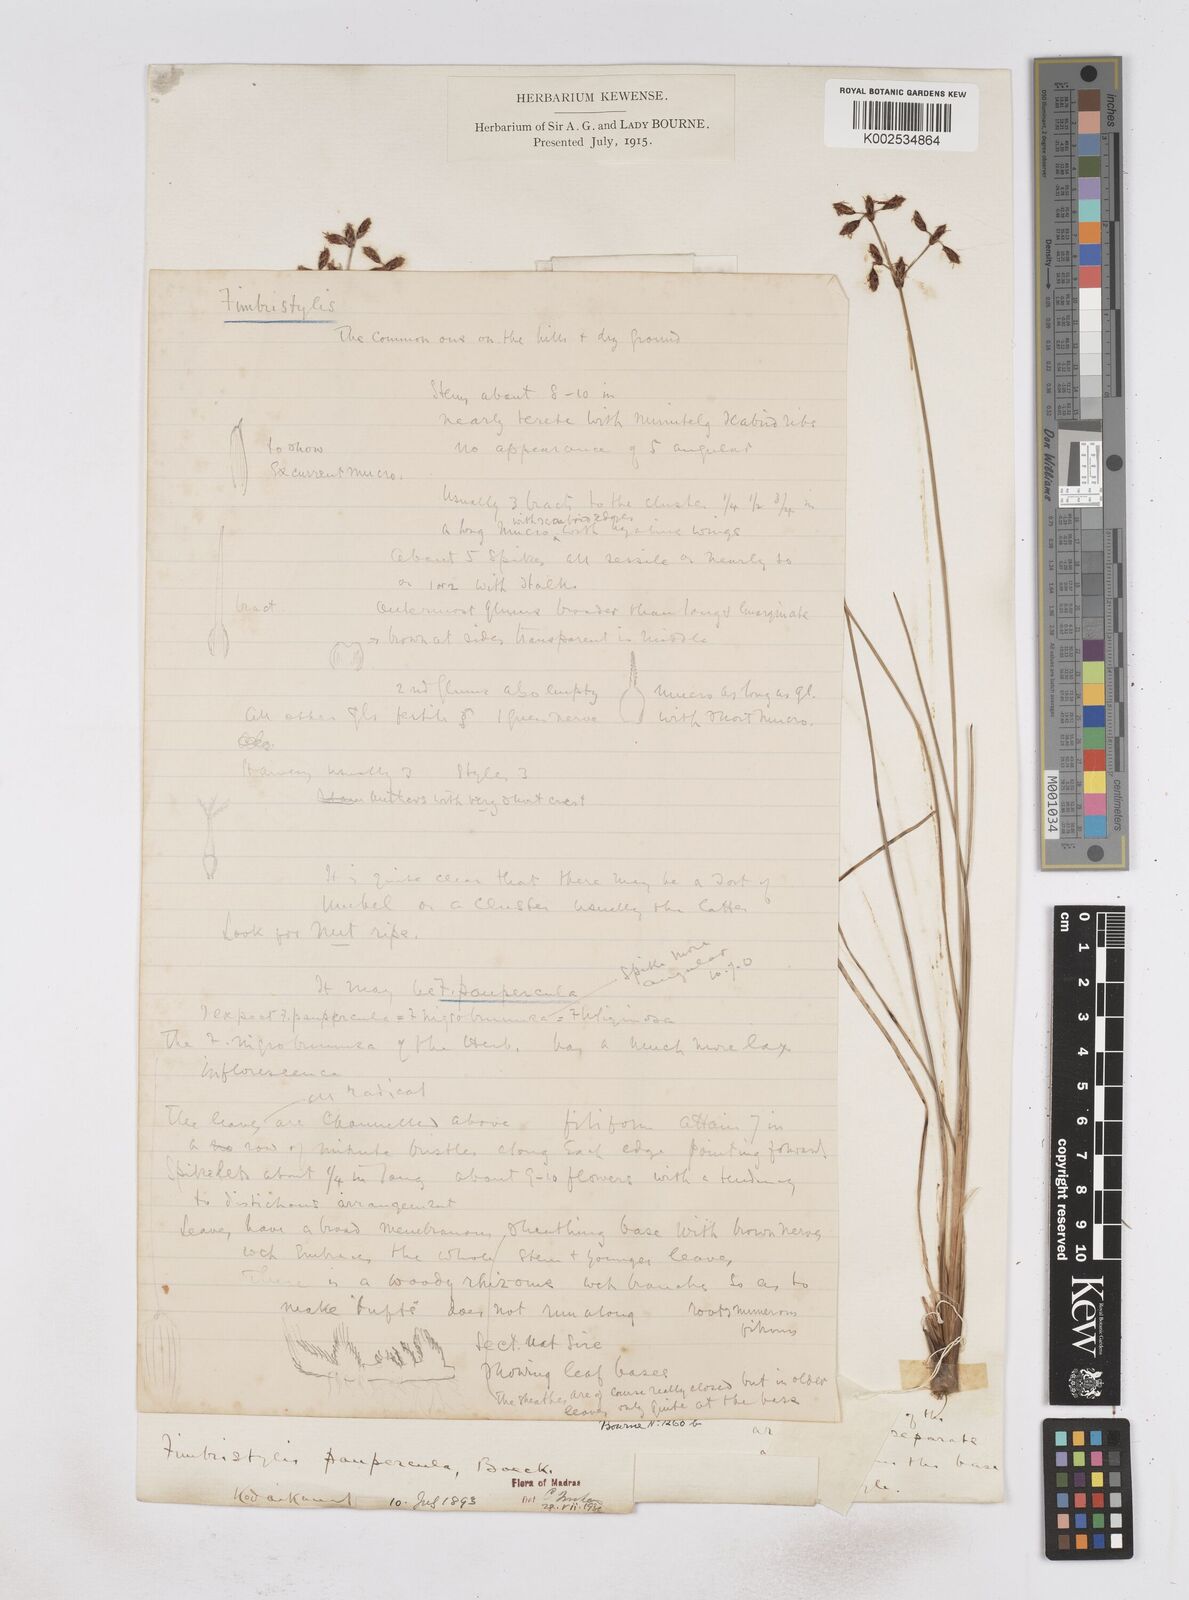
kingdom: Plantae
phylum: Tracheophyta
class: Liliopsida
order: Poales
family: Cyperaceae
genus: Fimbristylis
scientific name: Fimbristylis paupercula
